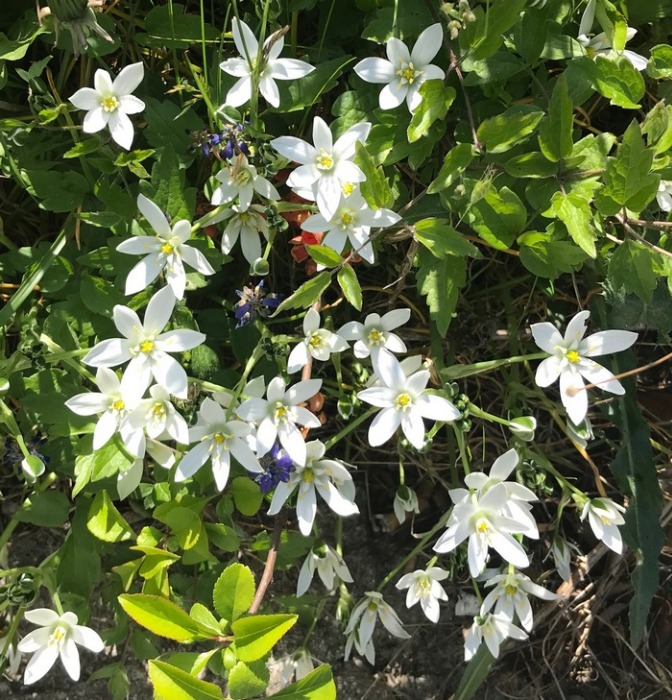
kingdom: Plantae
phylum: Tracheophyta
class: Liliopsida
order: Asparagales
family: Asparagaceae
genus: Ornithogalum
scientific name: Ornithogalum umbellatum
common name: Kost-fuglemælk
